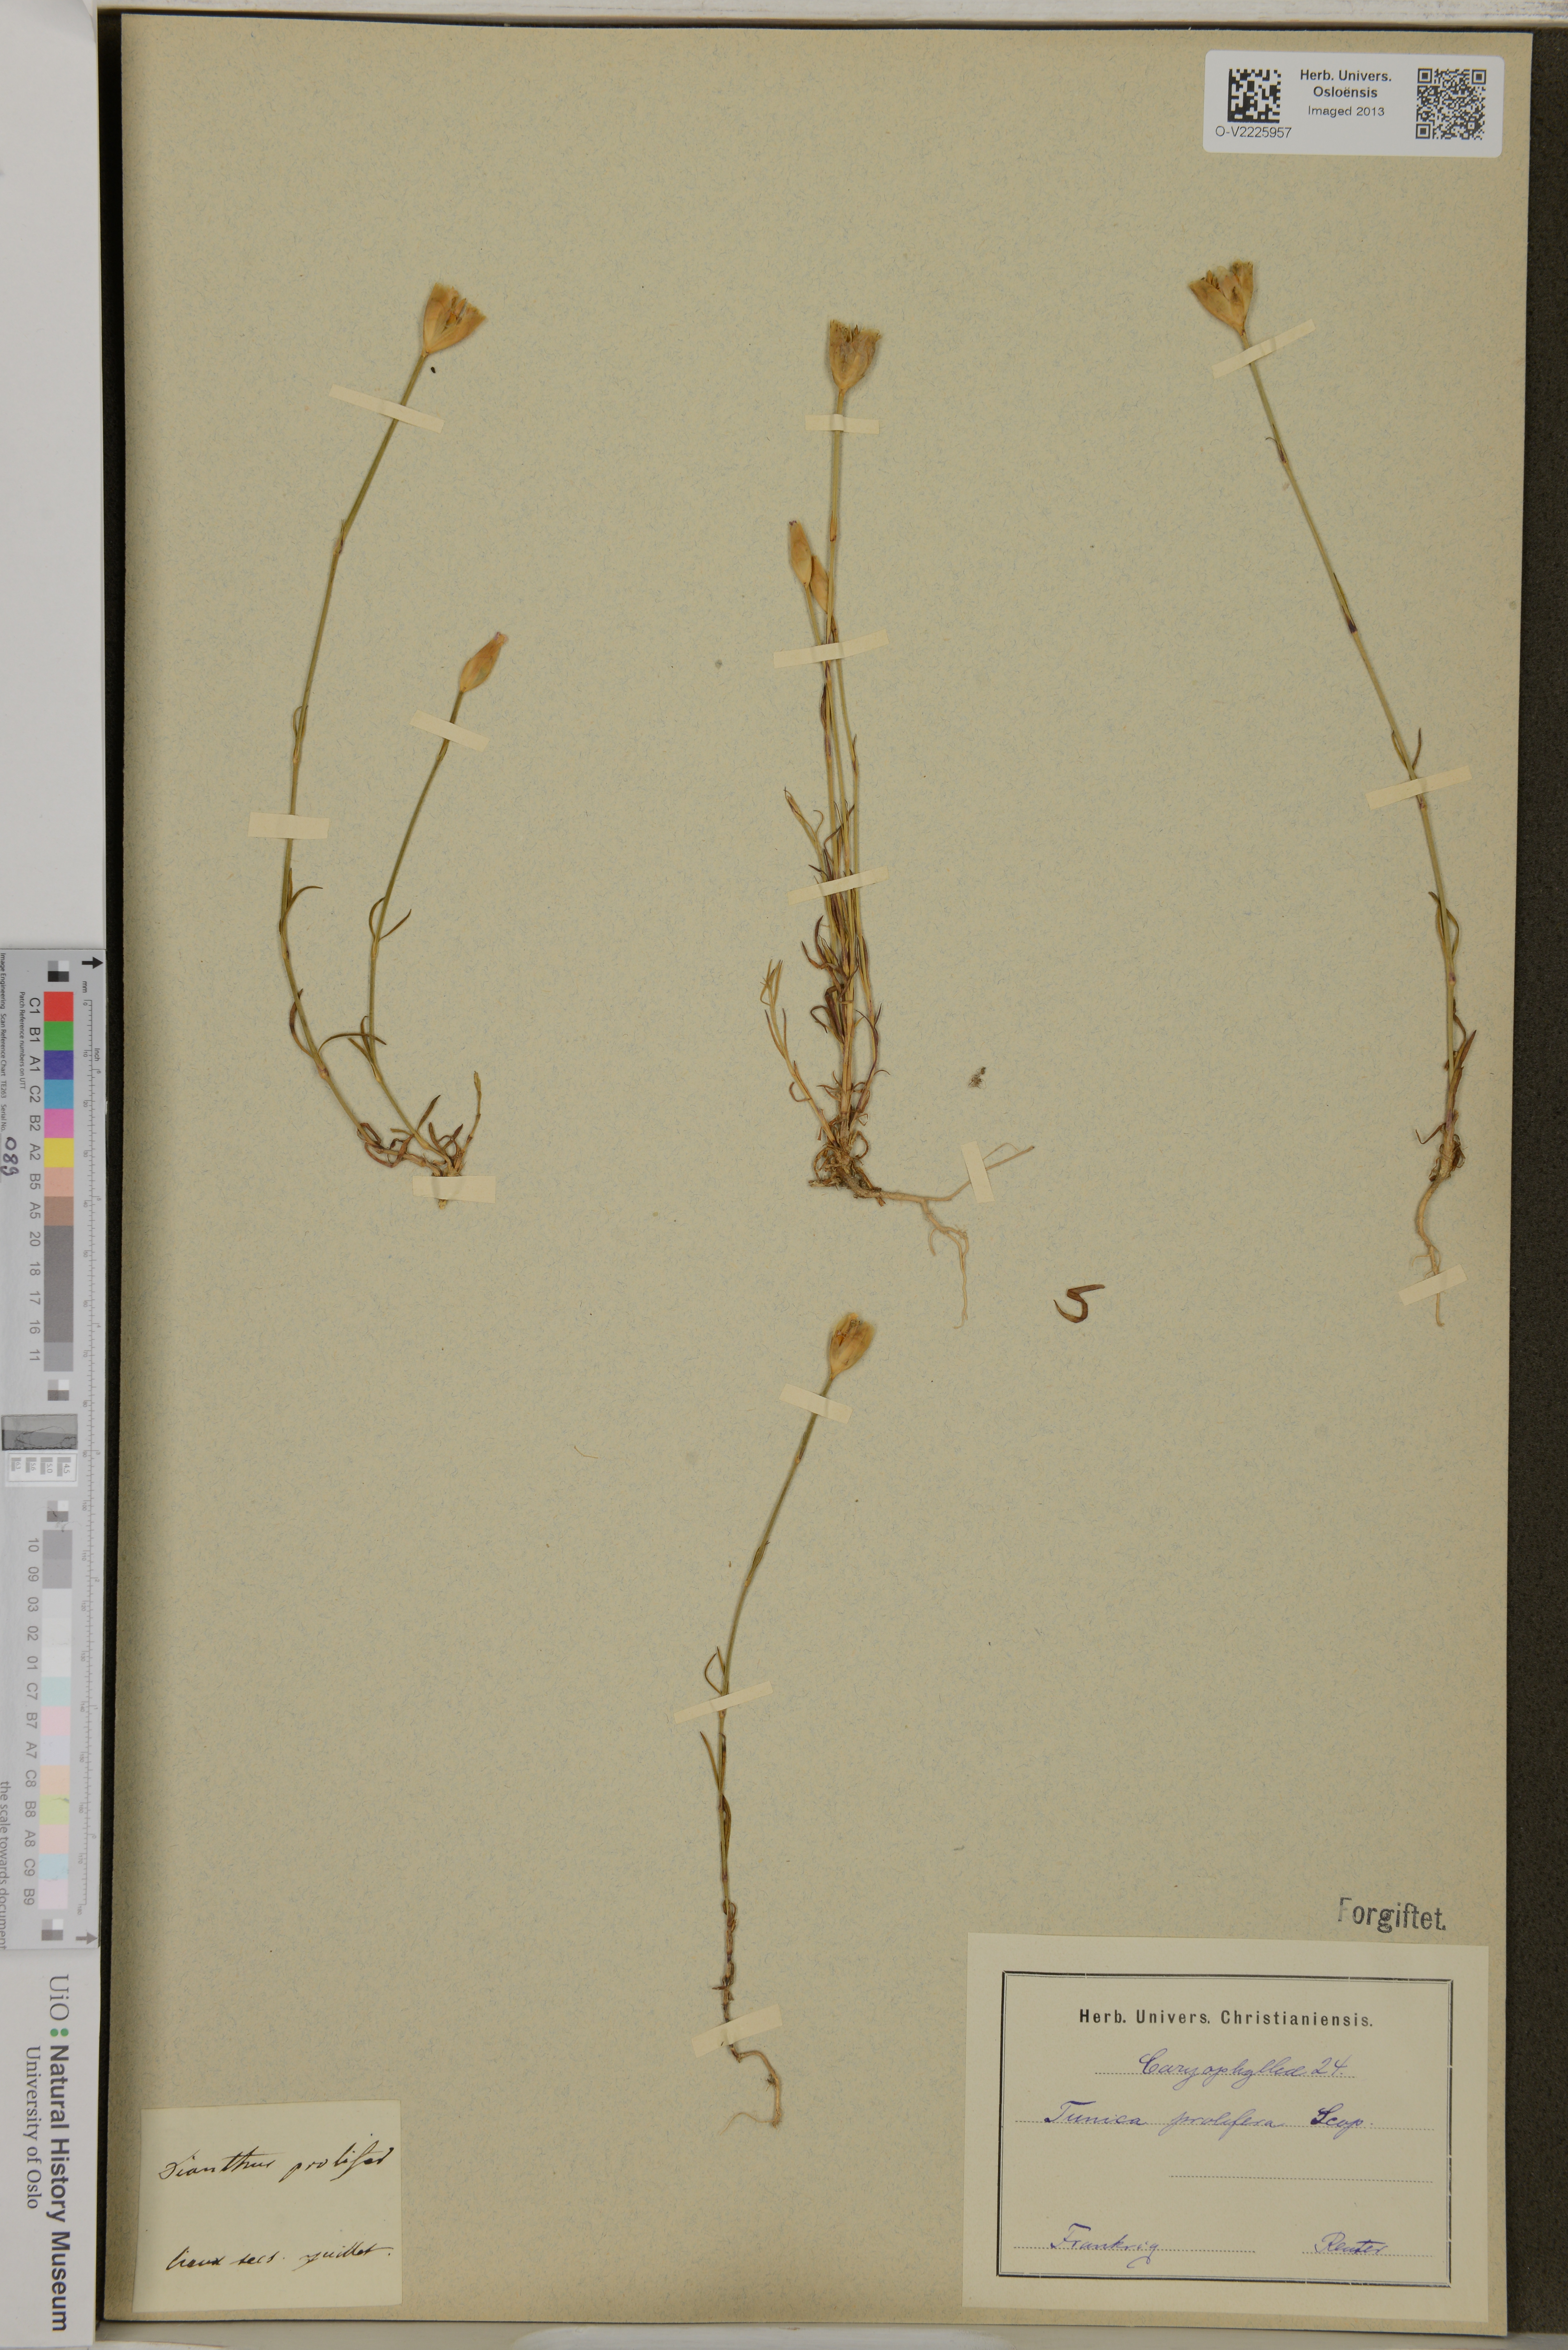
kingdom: Plantae
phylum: Tracheophyta
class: Magnoliopsida
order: Caryophyllales
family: Caryophyllaceae
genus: Petrorhagia
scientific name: Petrorhagia prolifera
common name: Proliferous pink
